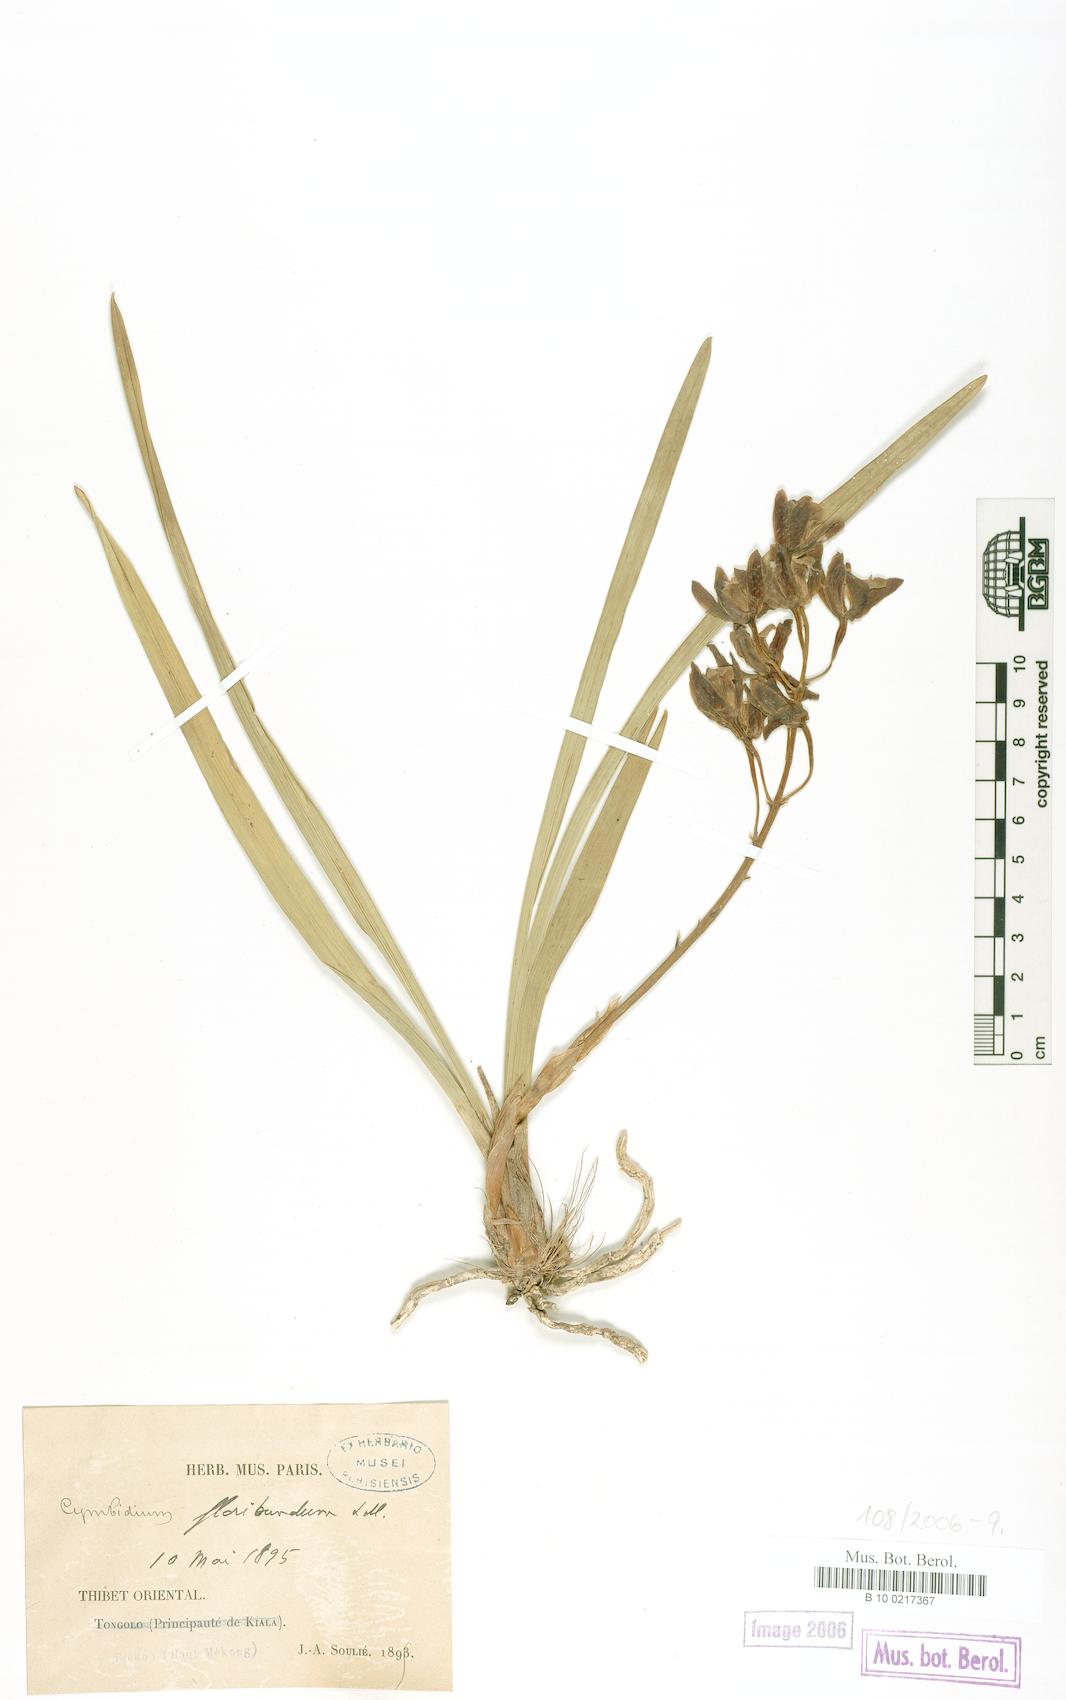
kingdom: Plantae
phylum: Tracheophyta
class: Liliopsida
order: Asparagales
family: Orchidaceae
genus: Cymbidium
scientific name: Cymbidium floribundum
